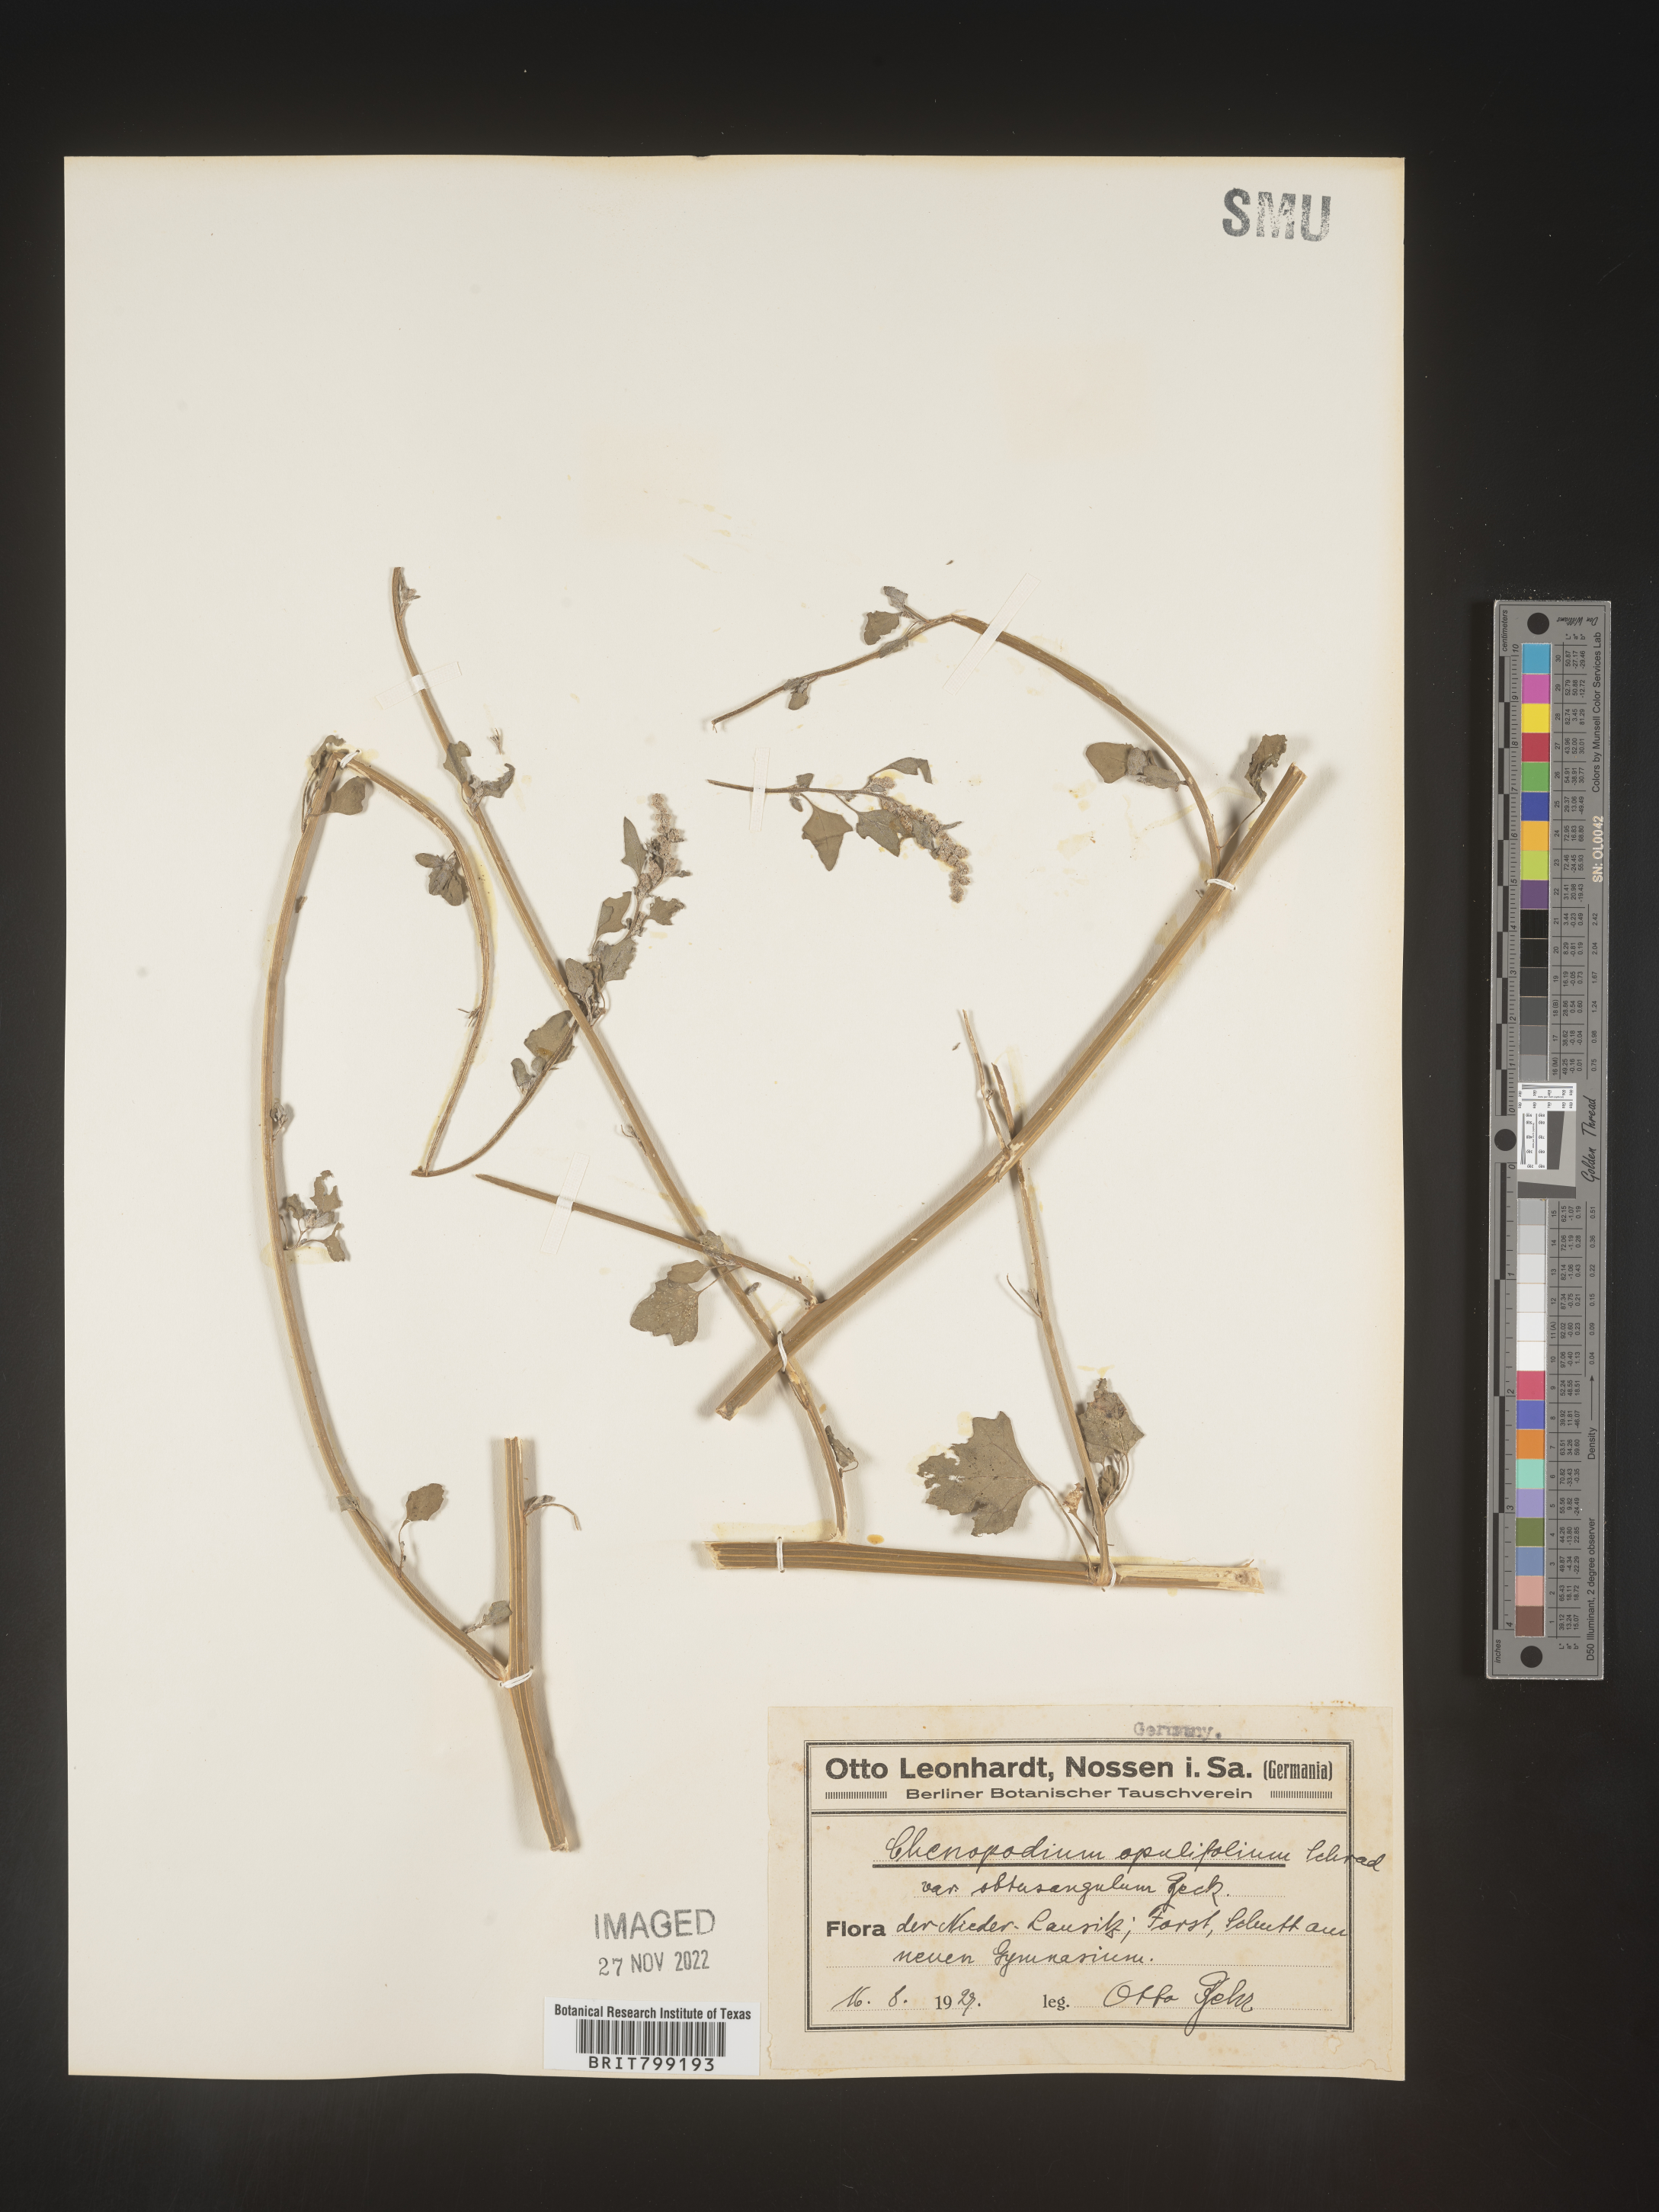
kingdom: Plantae
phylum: Tracheophyta
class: Magnoliopsida
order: Caryophyllales
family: Amaranthaceae
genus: Chenopodium
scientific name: Chenopodium opulifolium
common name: Grey goosefoot
